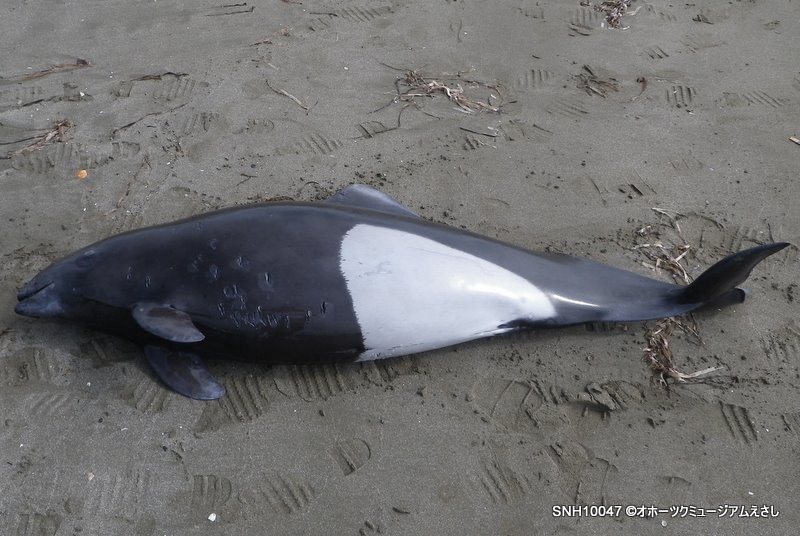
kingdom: Animalia
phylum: Chordata
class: Mammalia
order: Cetacea
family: Phocoenidae
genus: Phocoenoides
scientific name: Phocoenoides dalli
